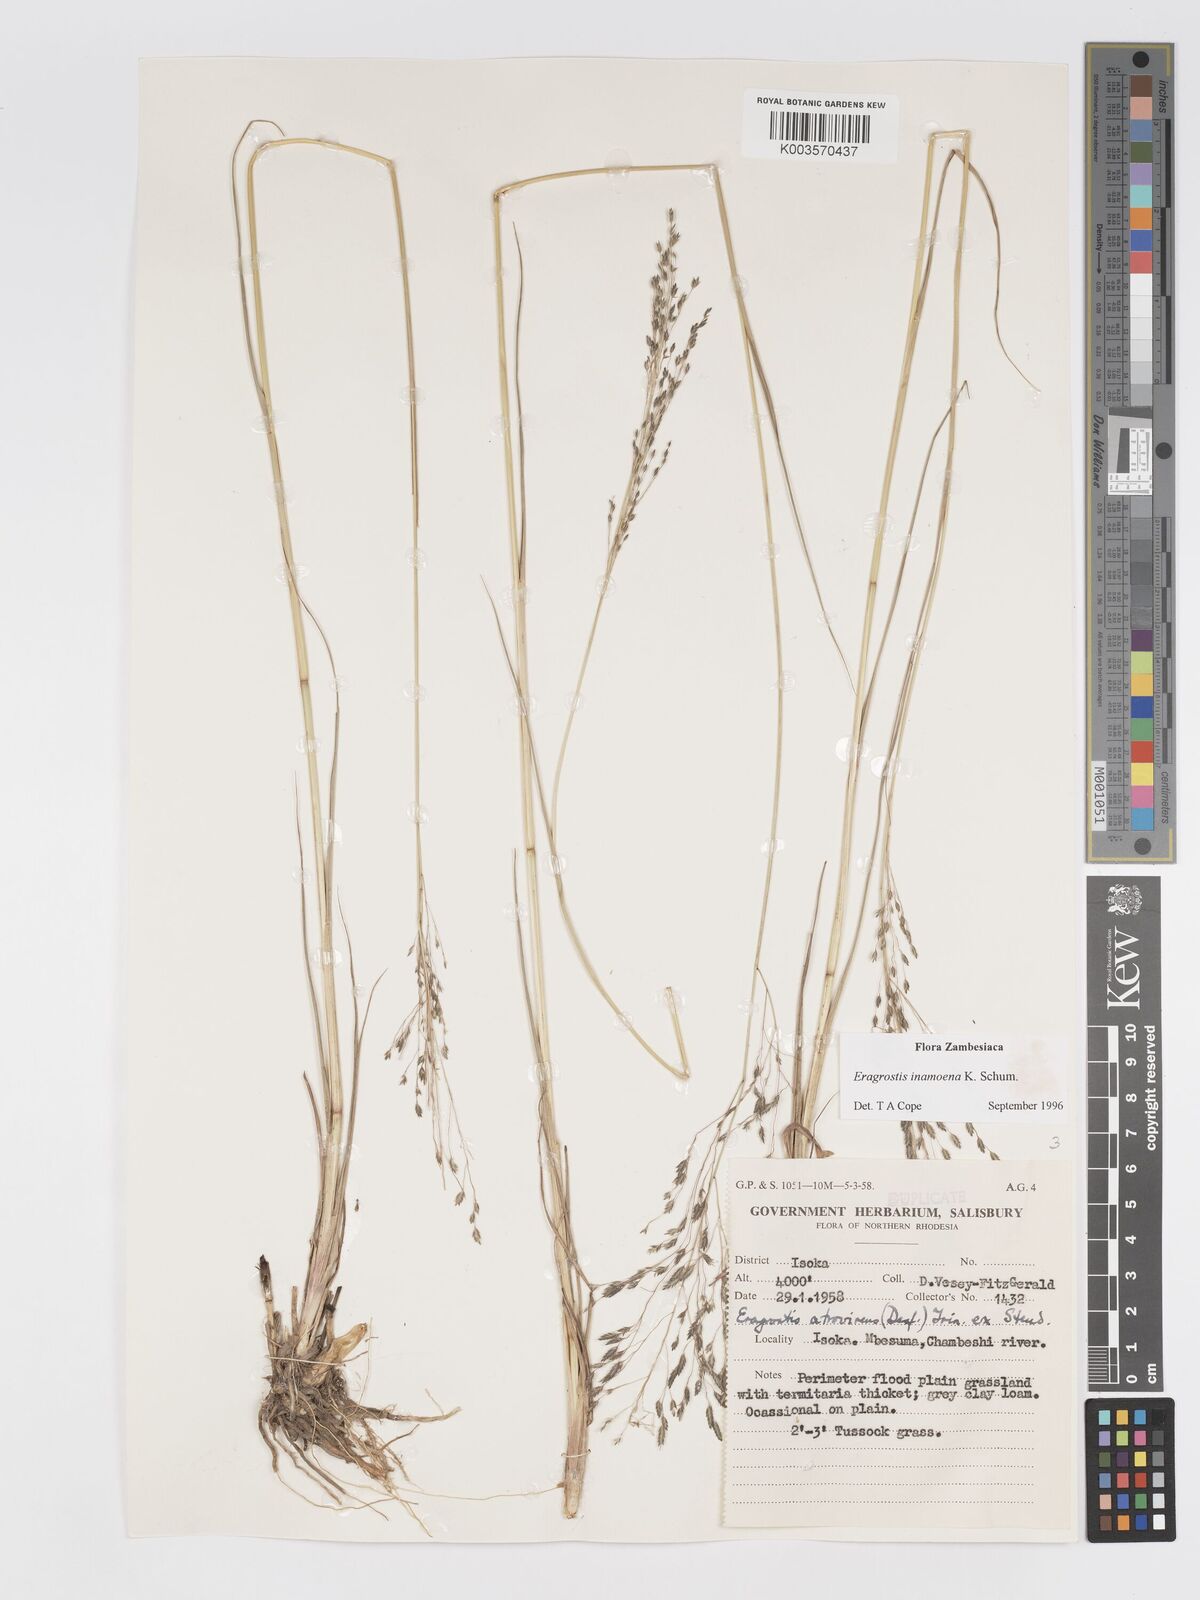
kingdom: Plantae
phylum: Tracheophyta
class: Liliopsida
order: Poales
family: Poaceae
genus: Eragrostis
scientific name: Eragrostis inamoena
